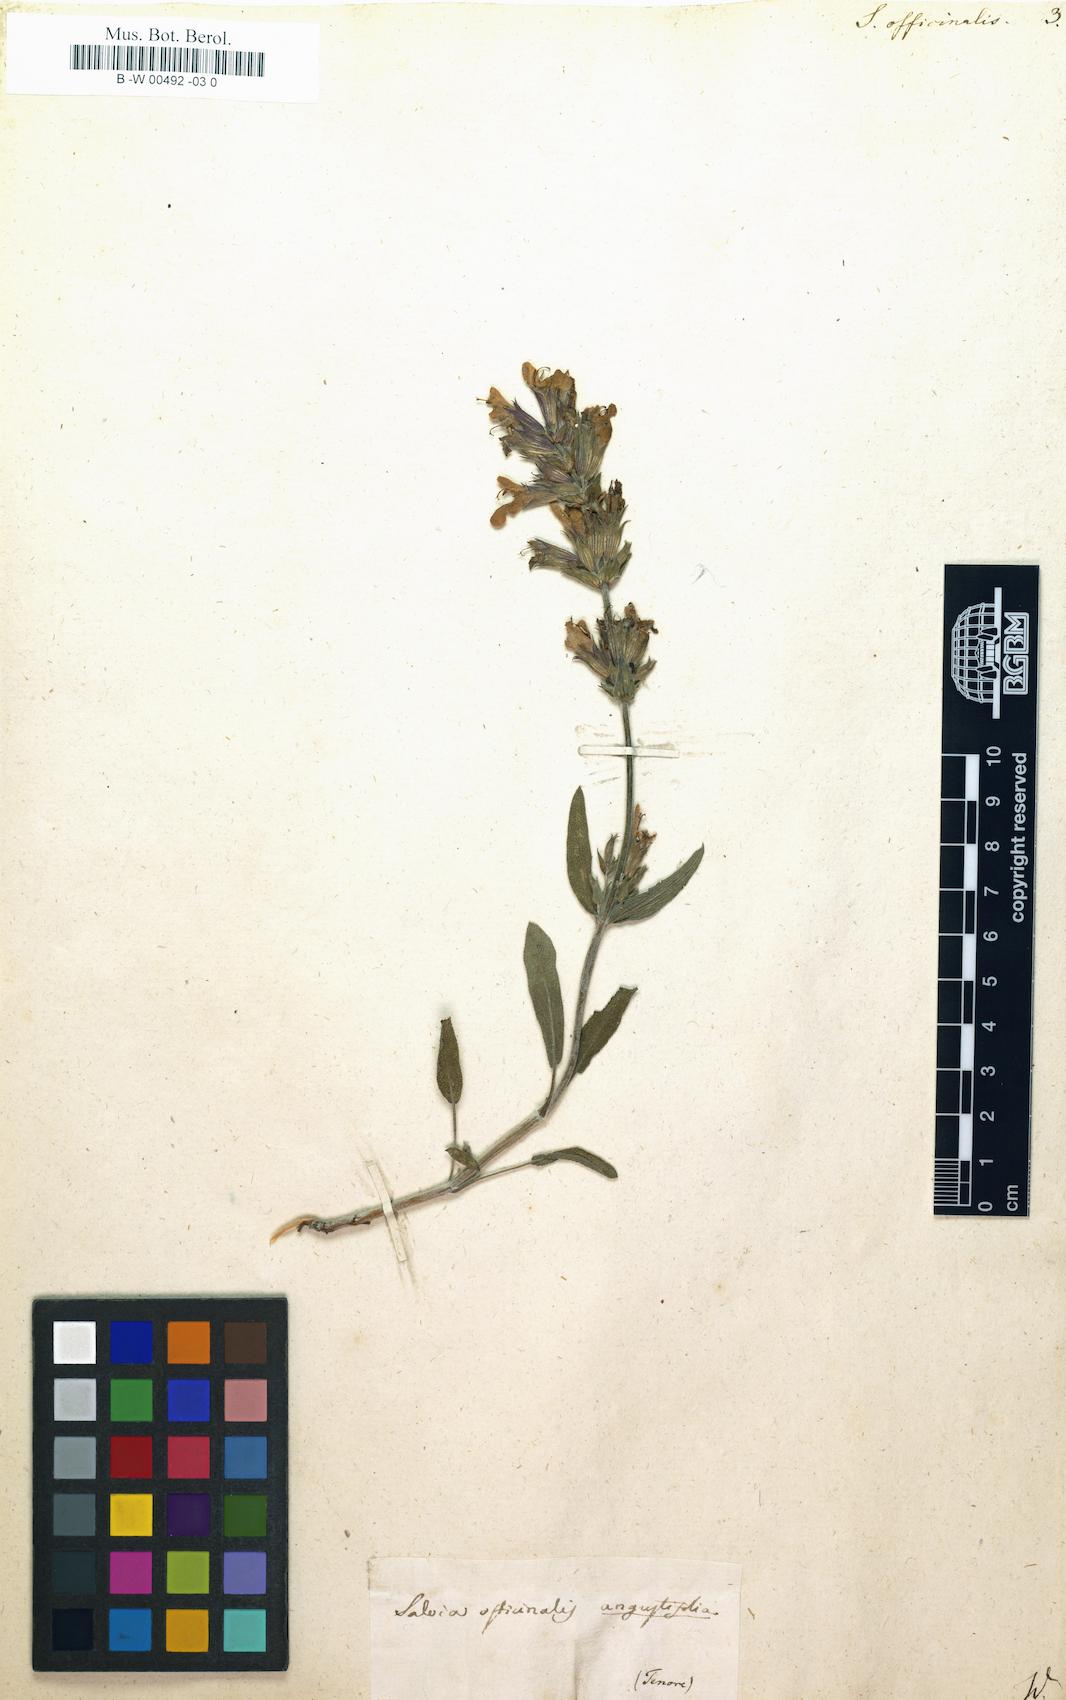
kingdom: Plantae
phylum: Tracheophyta
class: Magnoliopsida
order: Lamiales
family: Lamiaceae
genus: Salvia
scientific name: Salvia officinalis
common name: Sage
